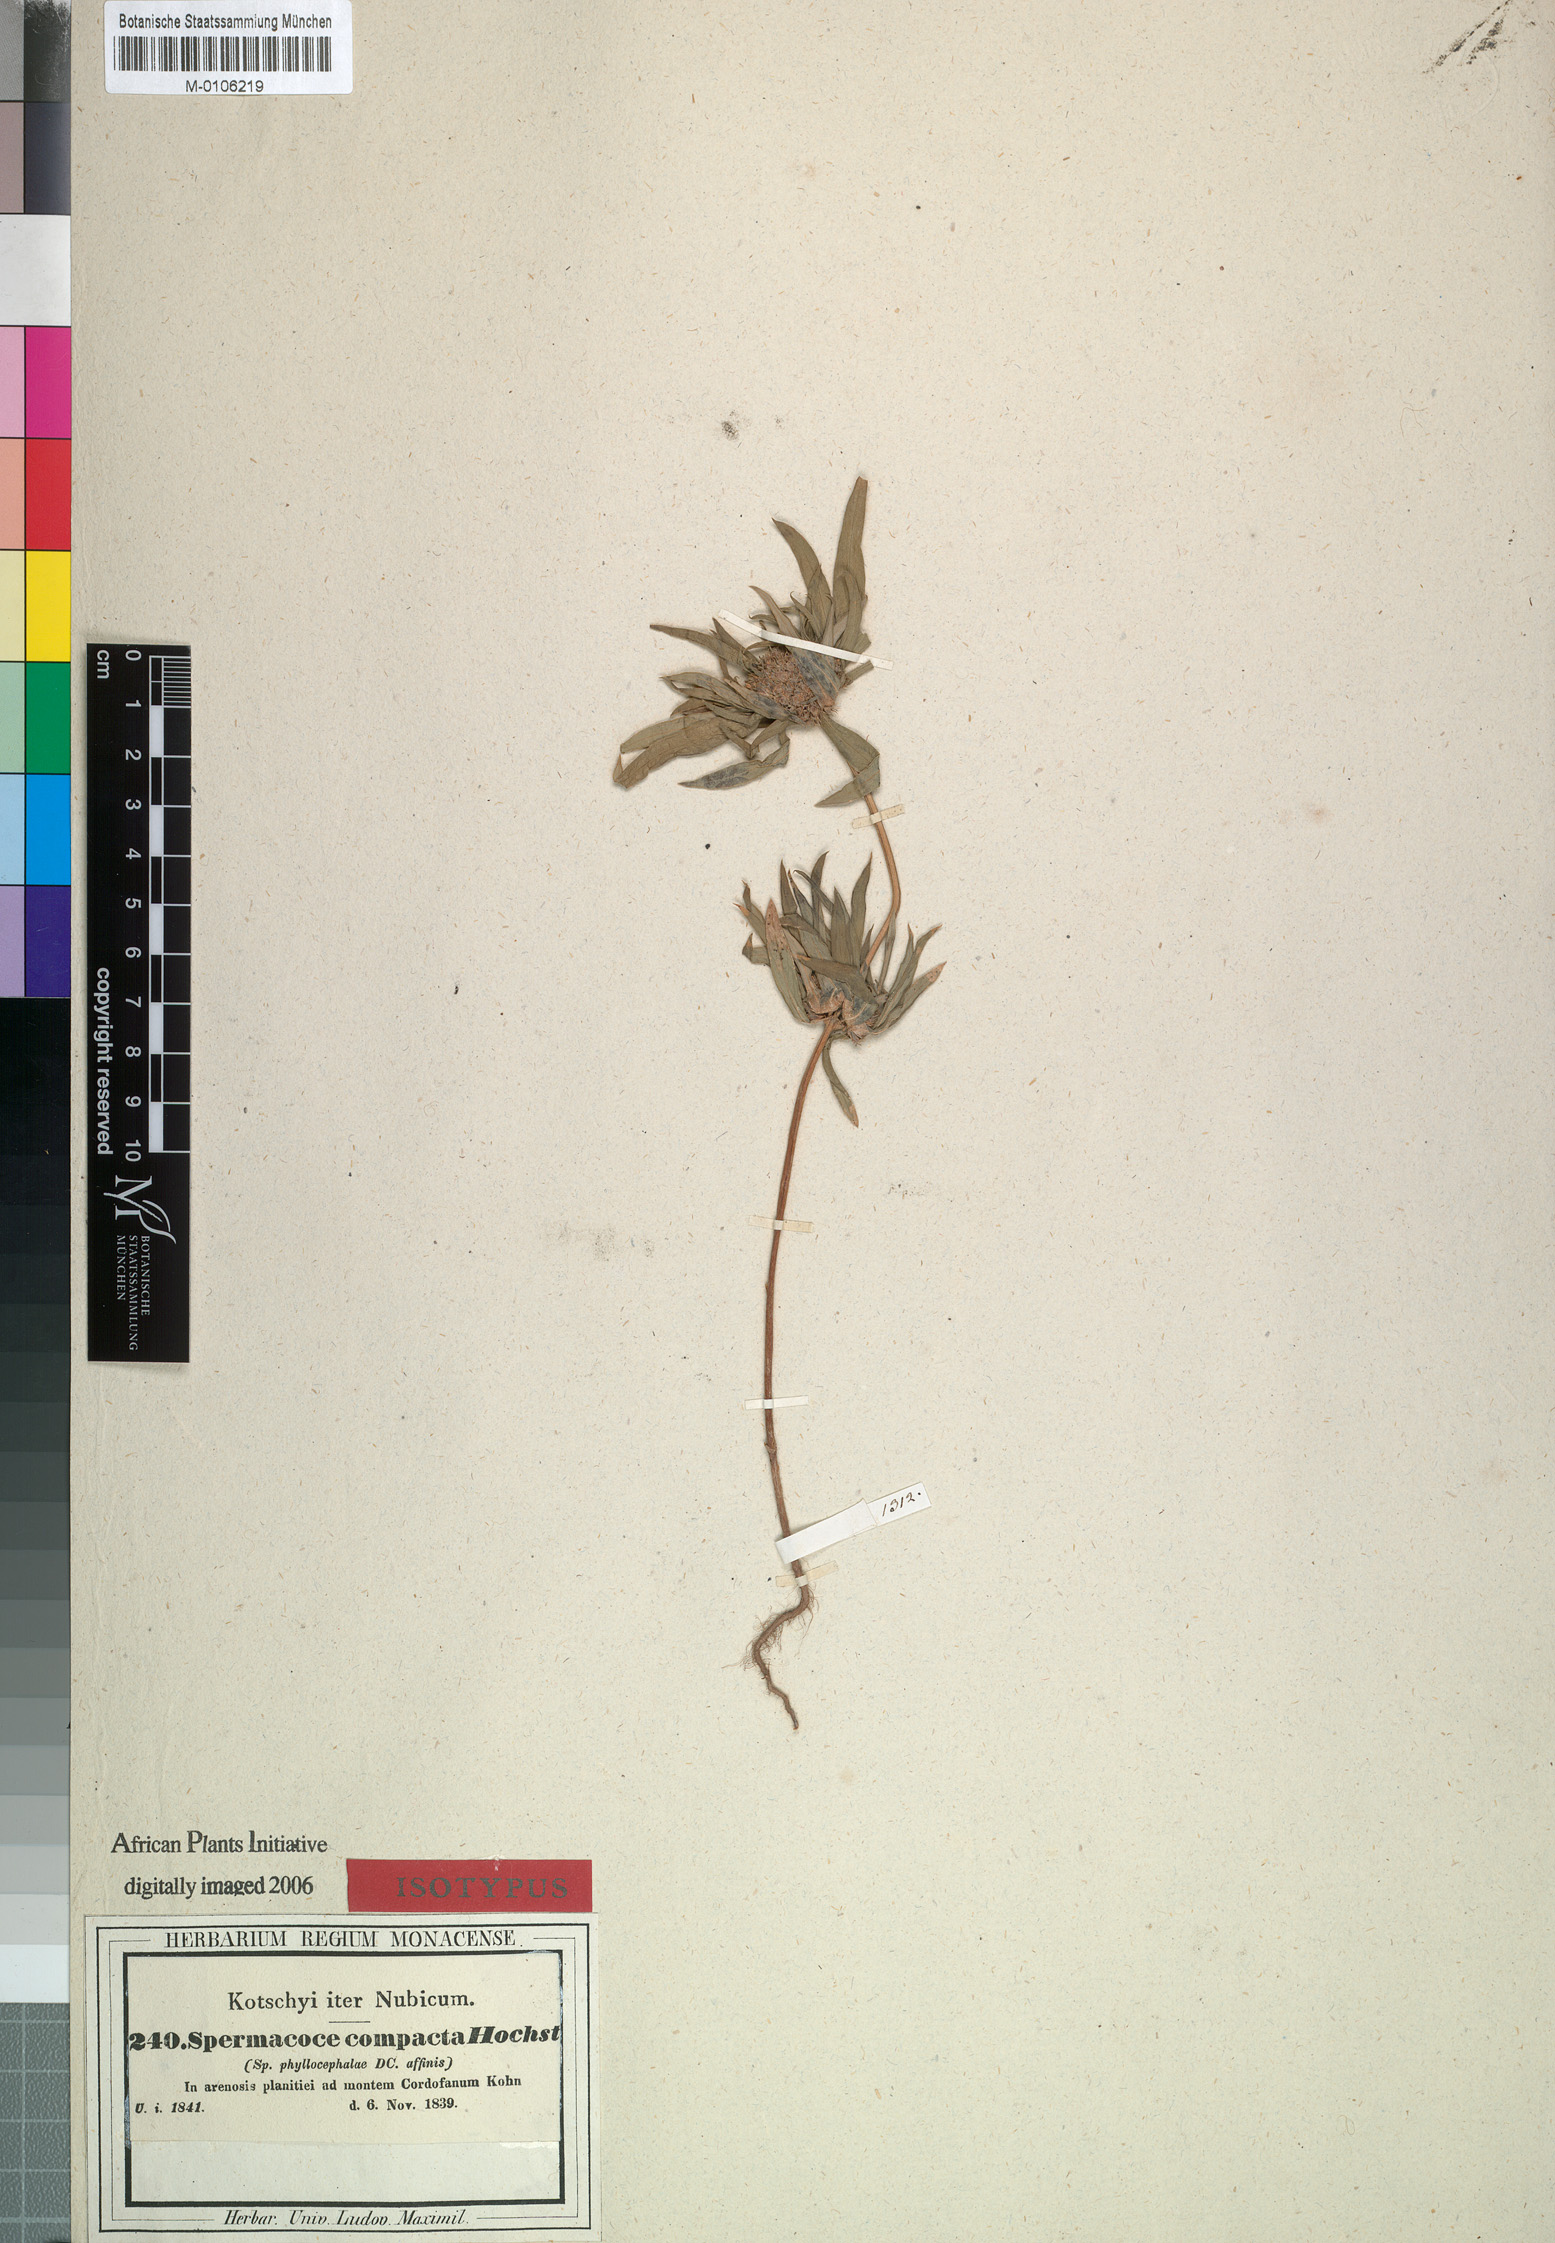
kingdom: Plantae
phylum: Tracheophyta
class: Magnoliopsida
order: Gentianales
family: Rubiaceae
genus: Spermacoce
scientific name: Spermacoce chaetocephala
